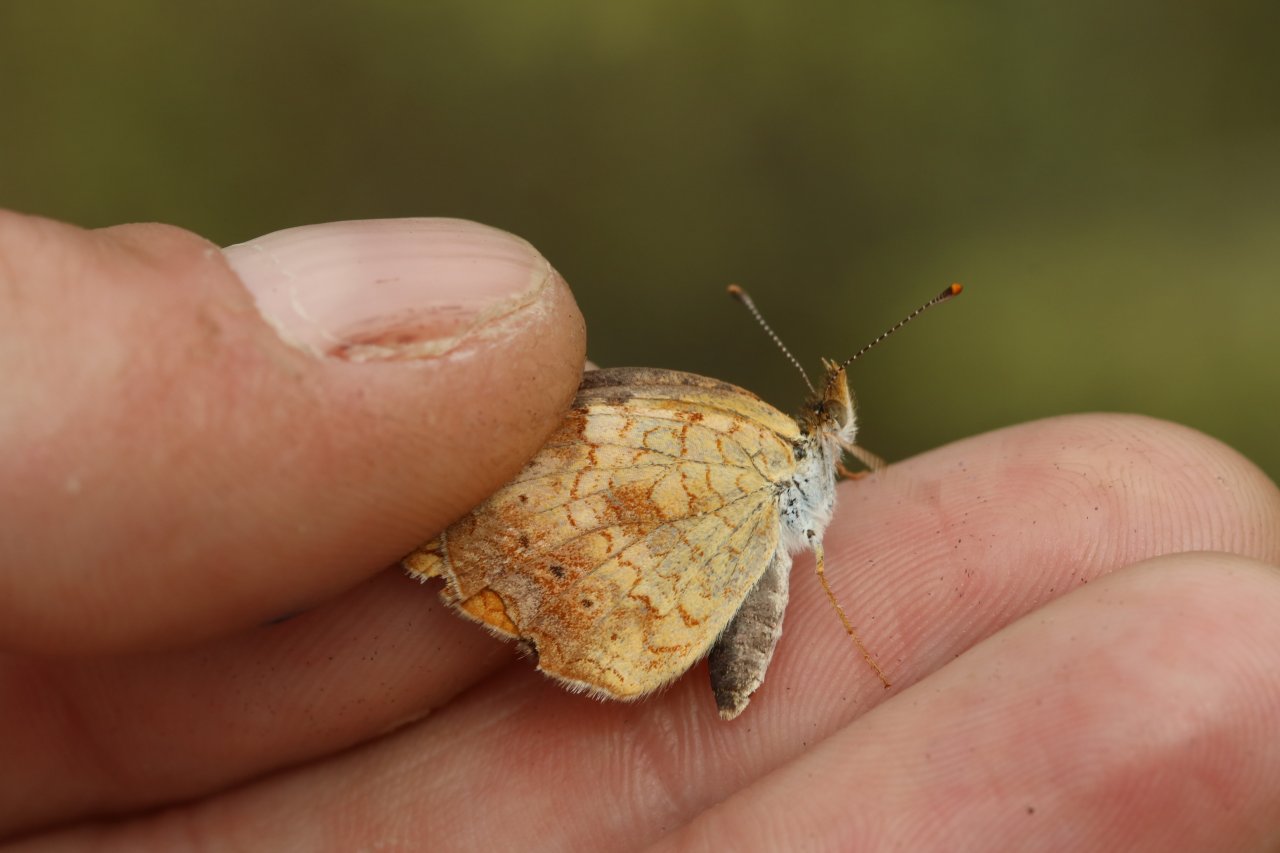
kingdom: Animalia
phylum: Arthropoda
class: Insecta
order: Lepidoptera
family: Nymphalidae
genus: Phyciodes
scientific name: Phyciodes tharos
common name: Northern Crescent
